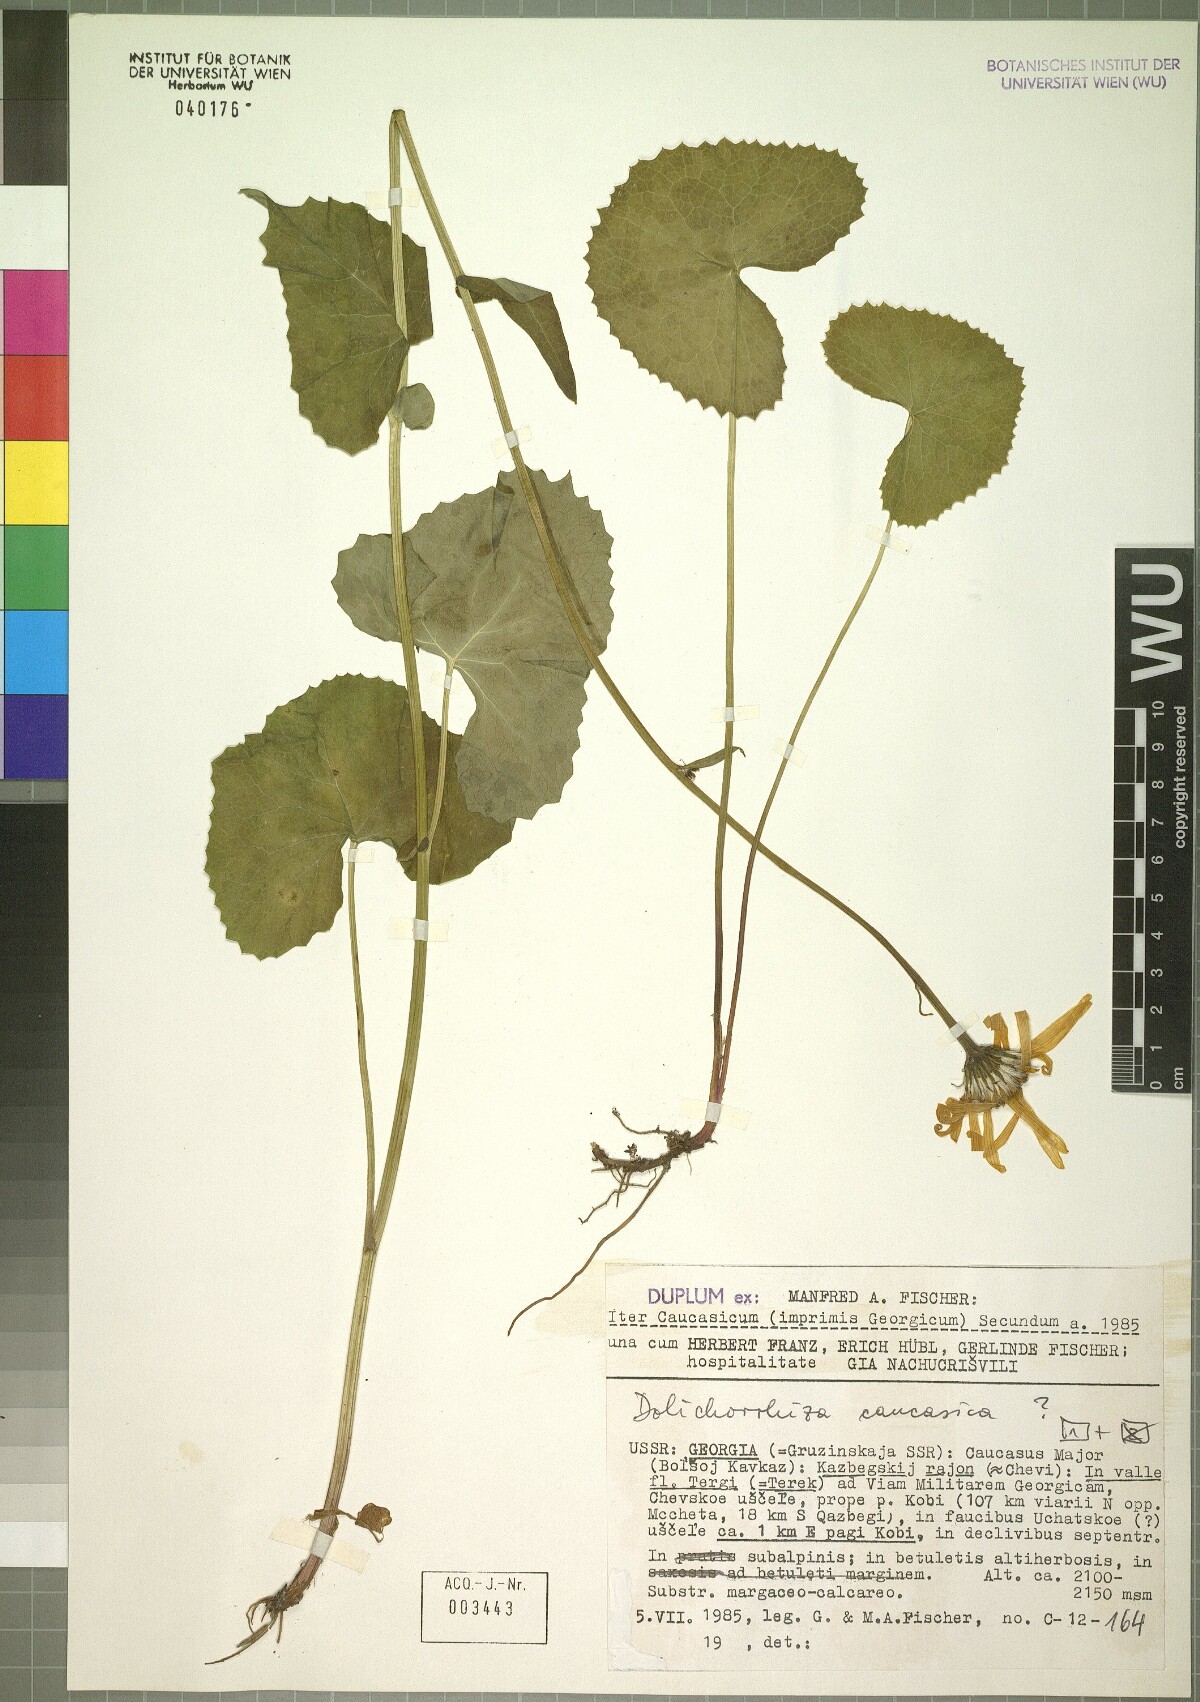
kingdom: Plantae
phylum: Tracheophyta
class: Magnoliopsida
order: Asterales
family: Asteraceae
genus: Dolichorrhiza
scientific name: Dolichorrhiza caucasica
